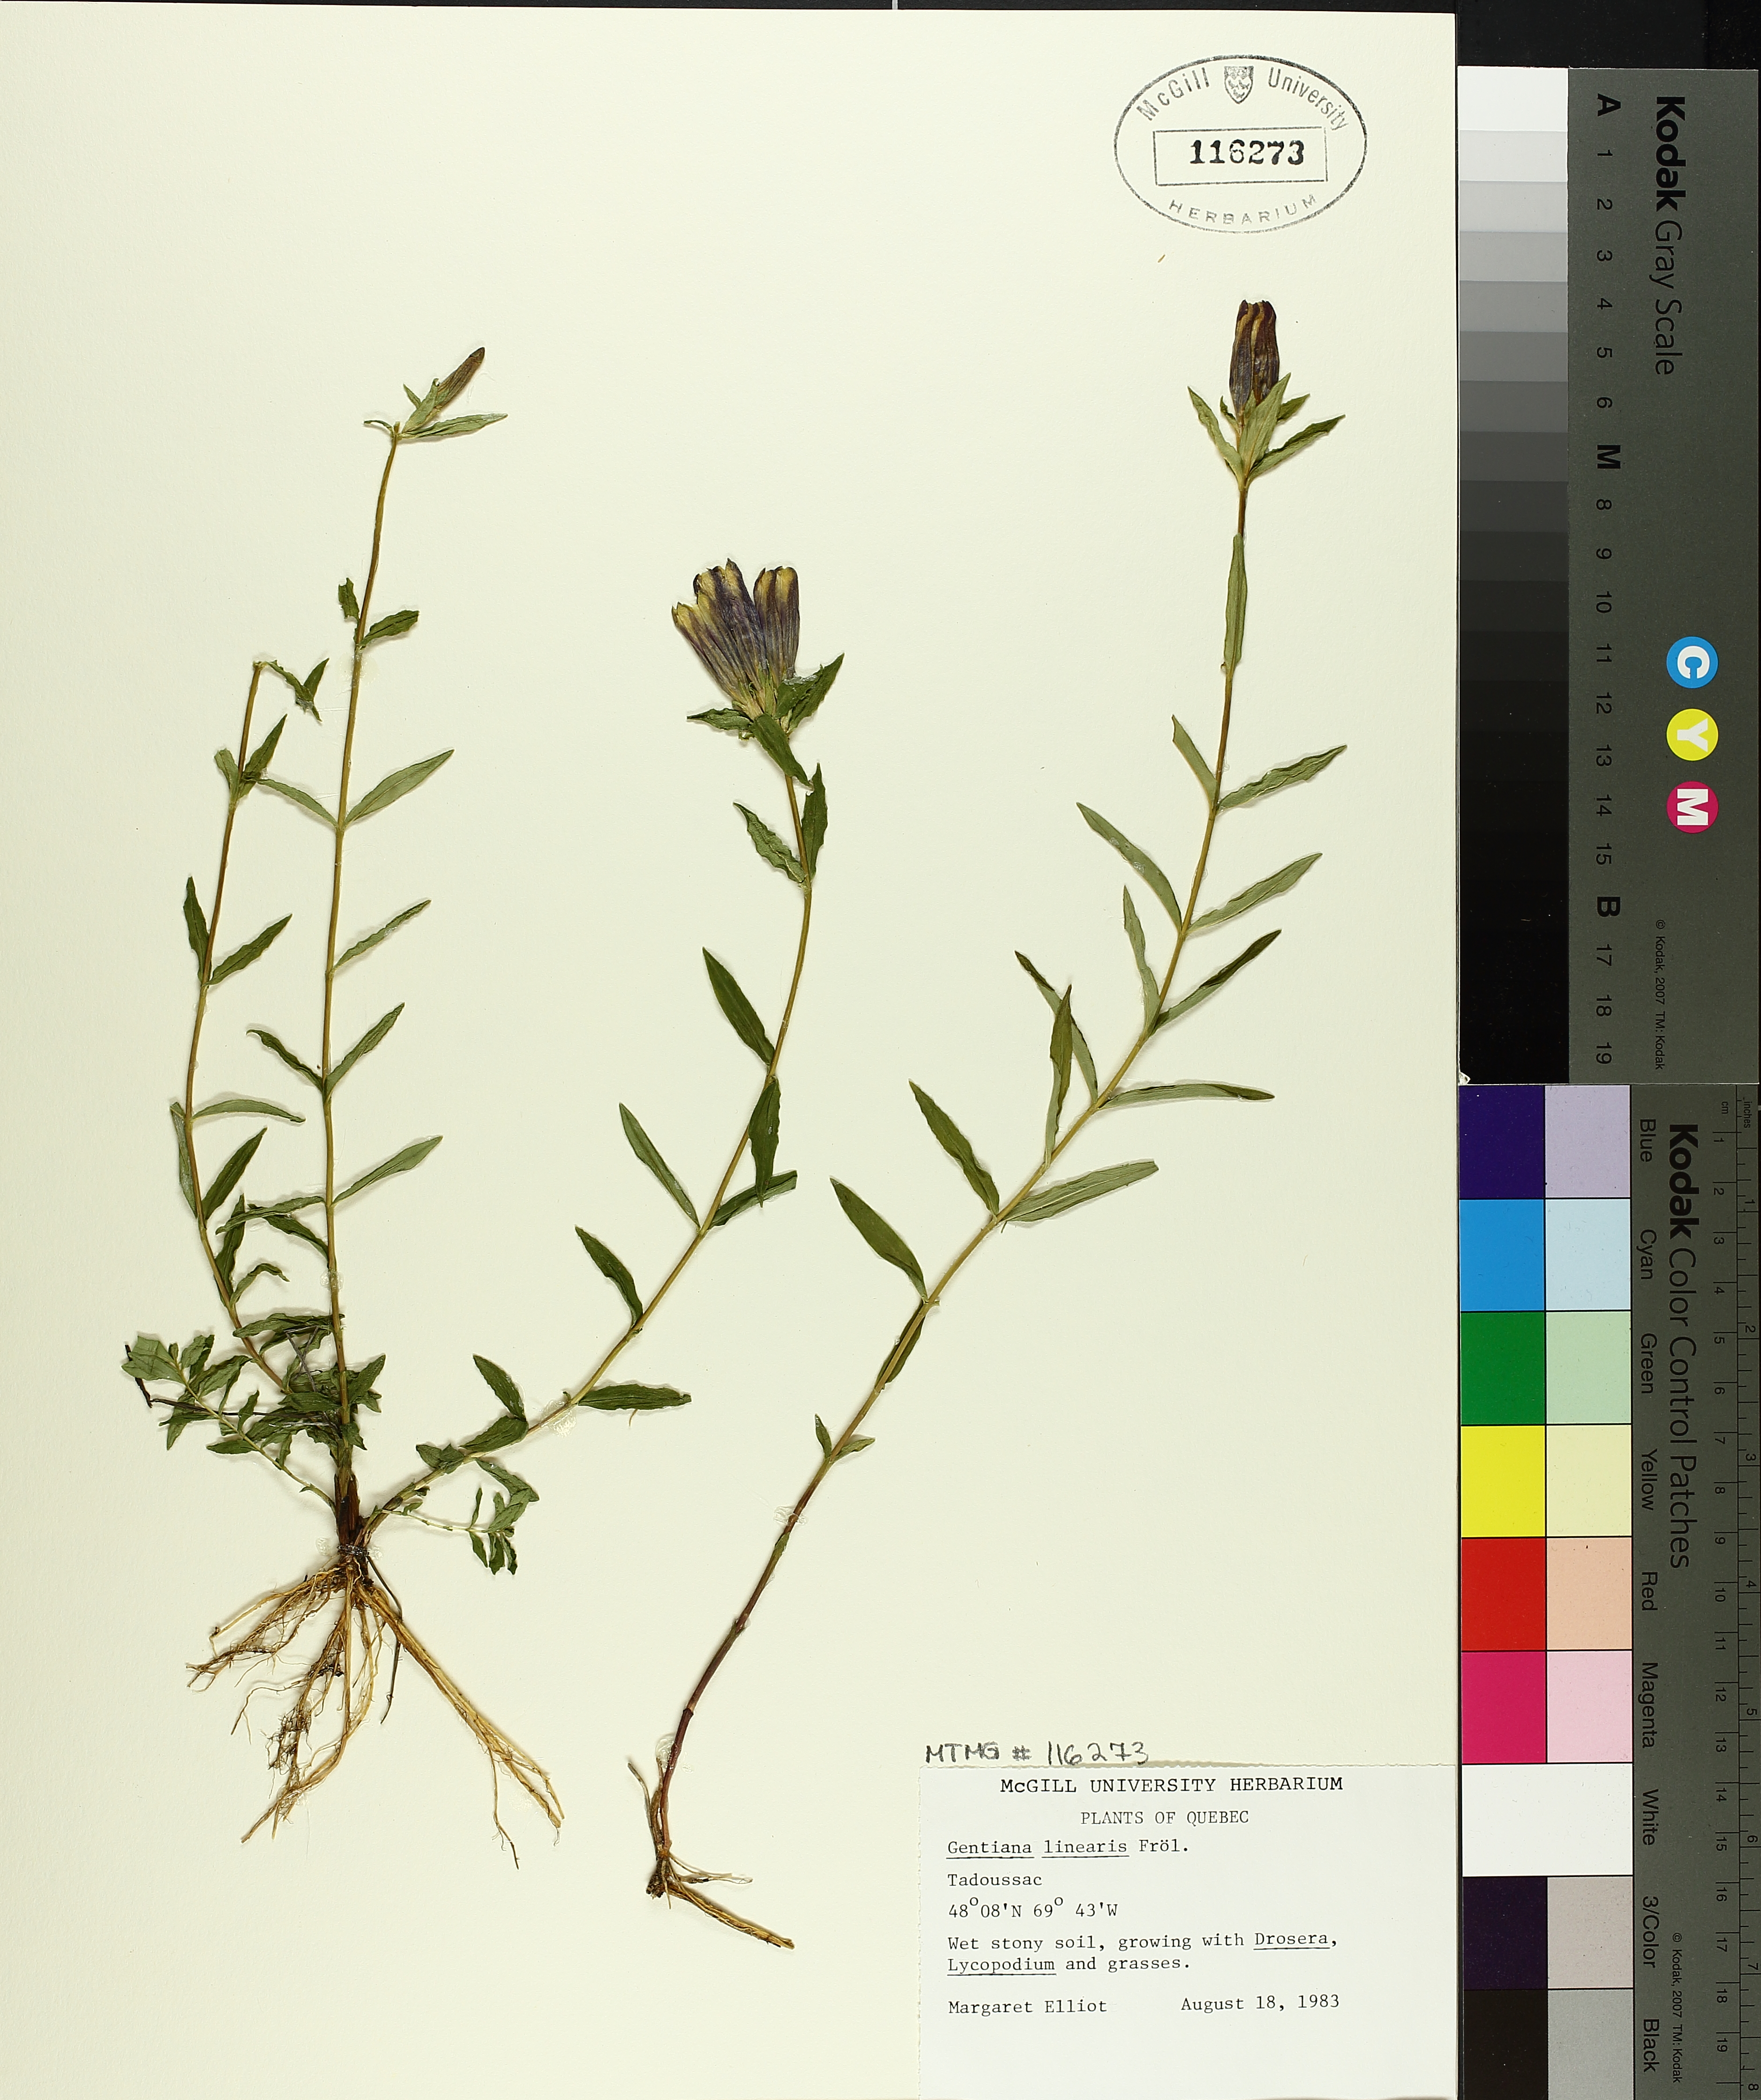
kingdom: Plantae
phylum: Tracheophyta
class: Magnoliopsida
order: Gentianales
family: Gentianaceae
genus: Gentiana
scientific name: Gentiana linearis
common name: Bastard gentian
